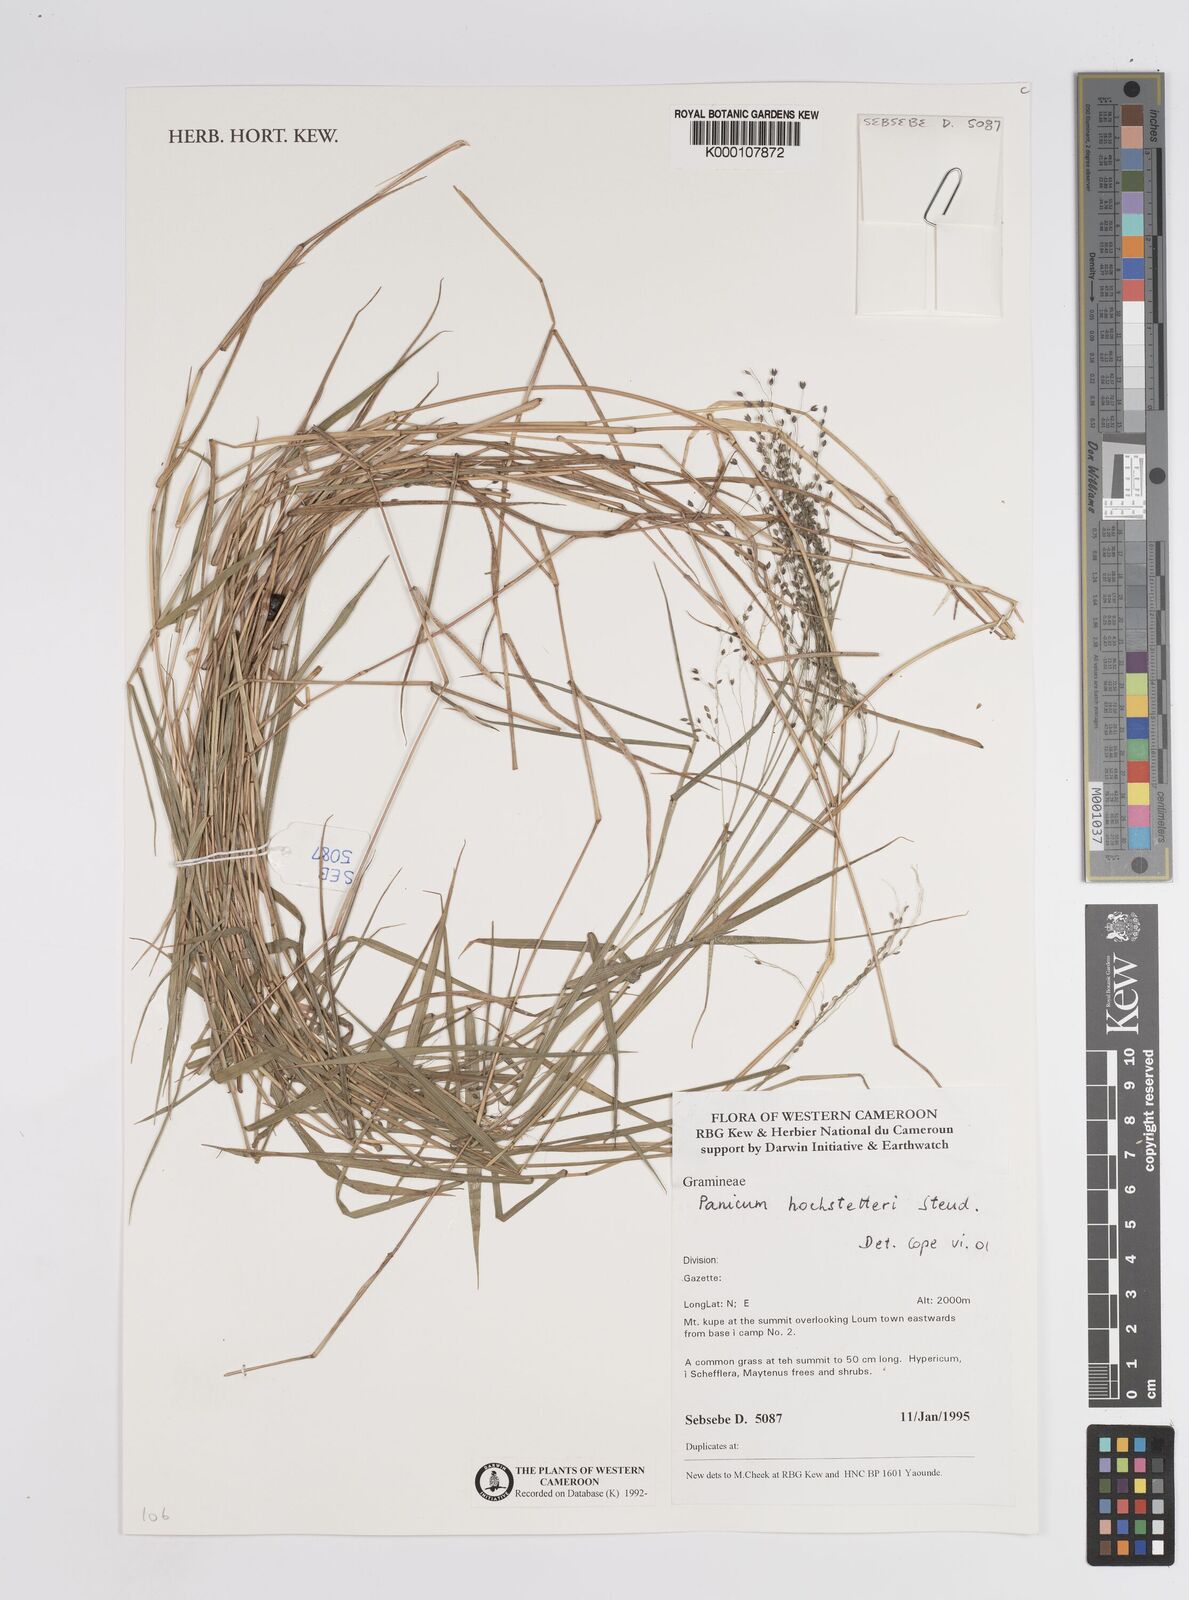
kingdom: Plantae
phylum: Tracheophyta
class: Liliopsida
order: Poales
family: Poaceae
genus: Panicum
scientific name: Panicum hochstetteri
